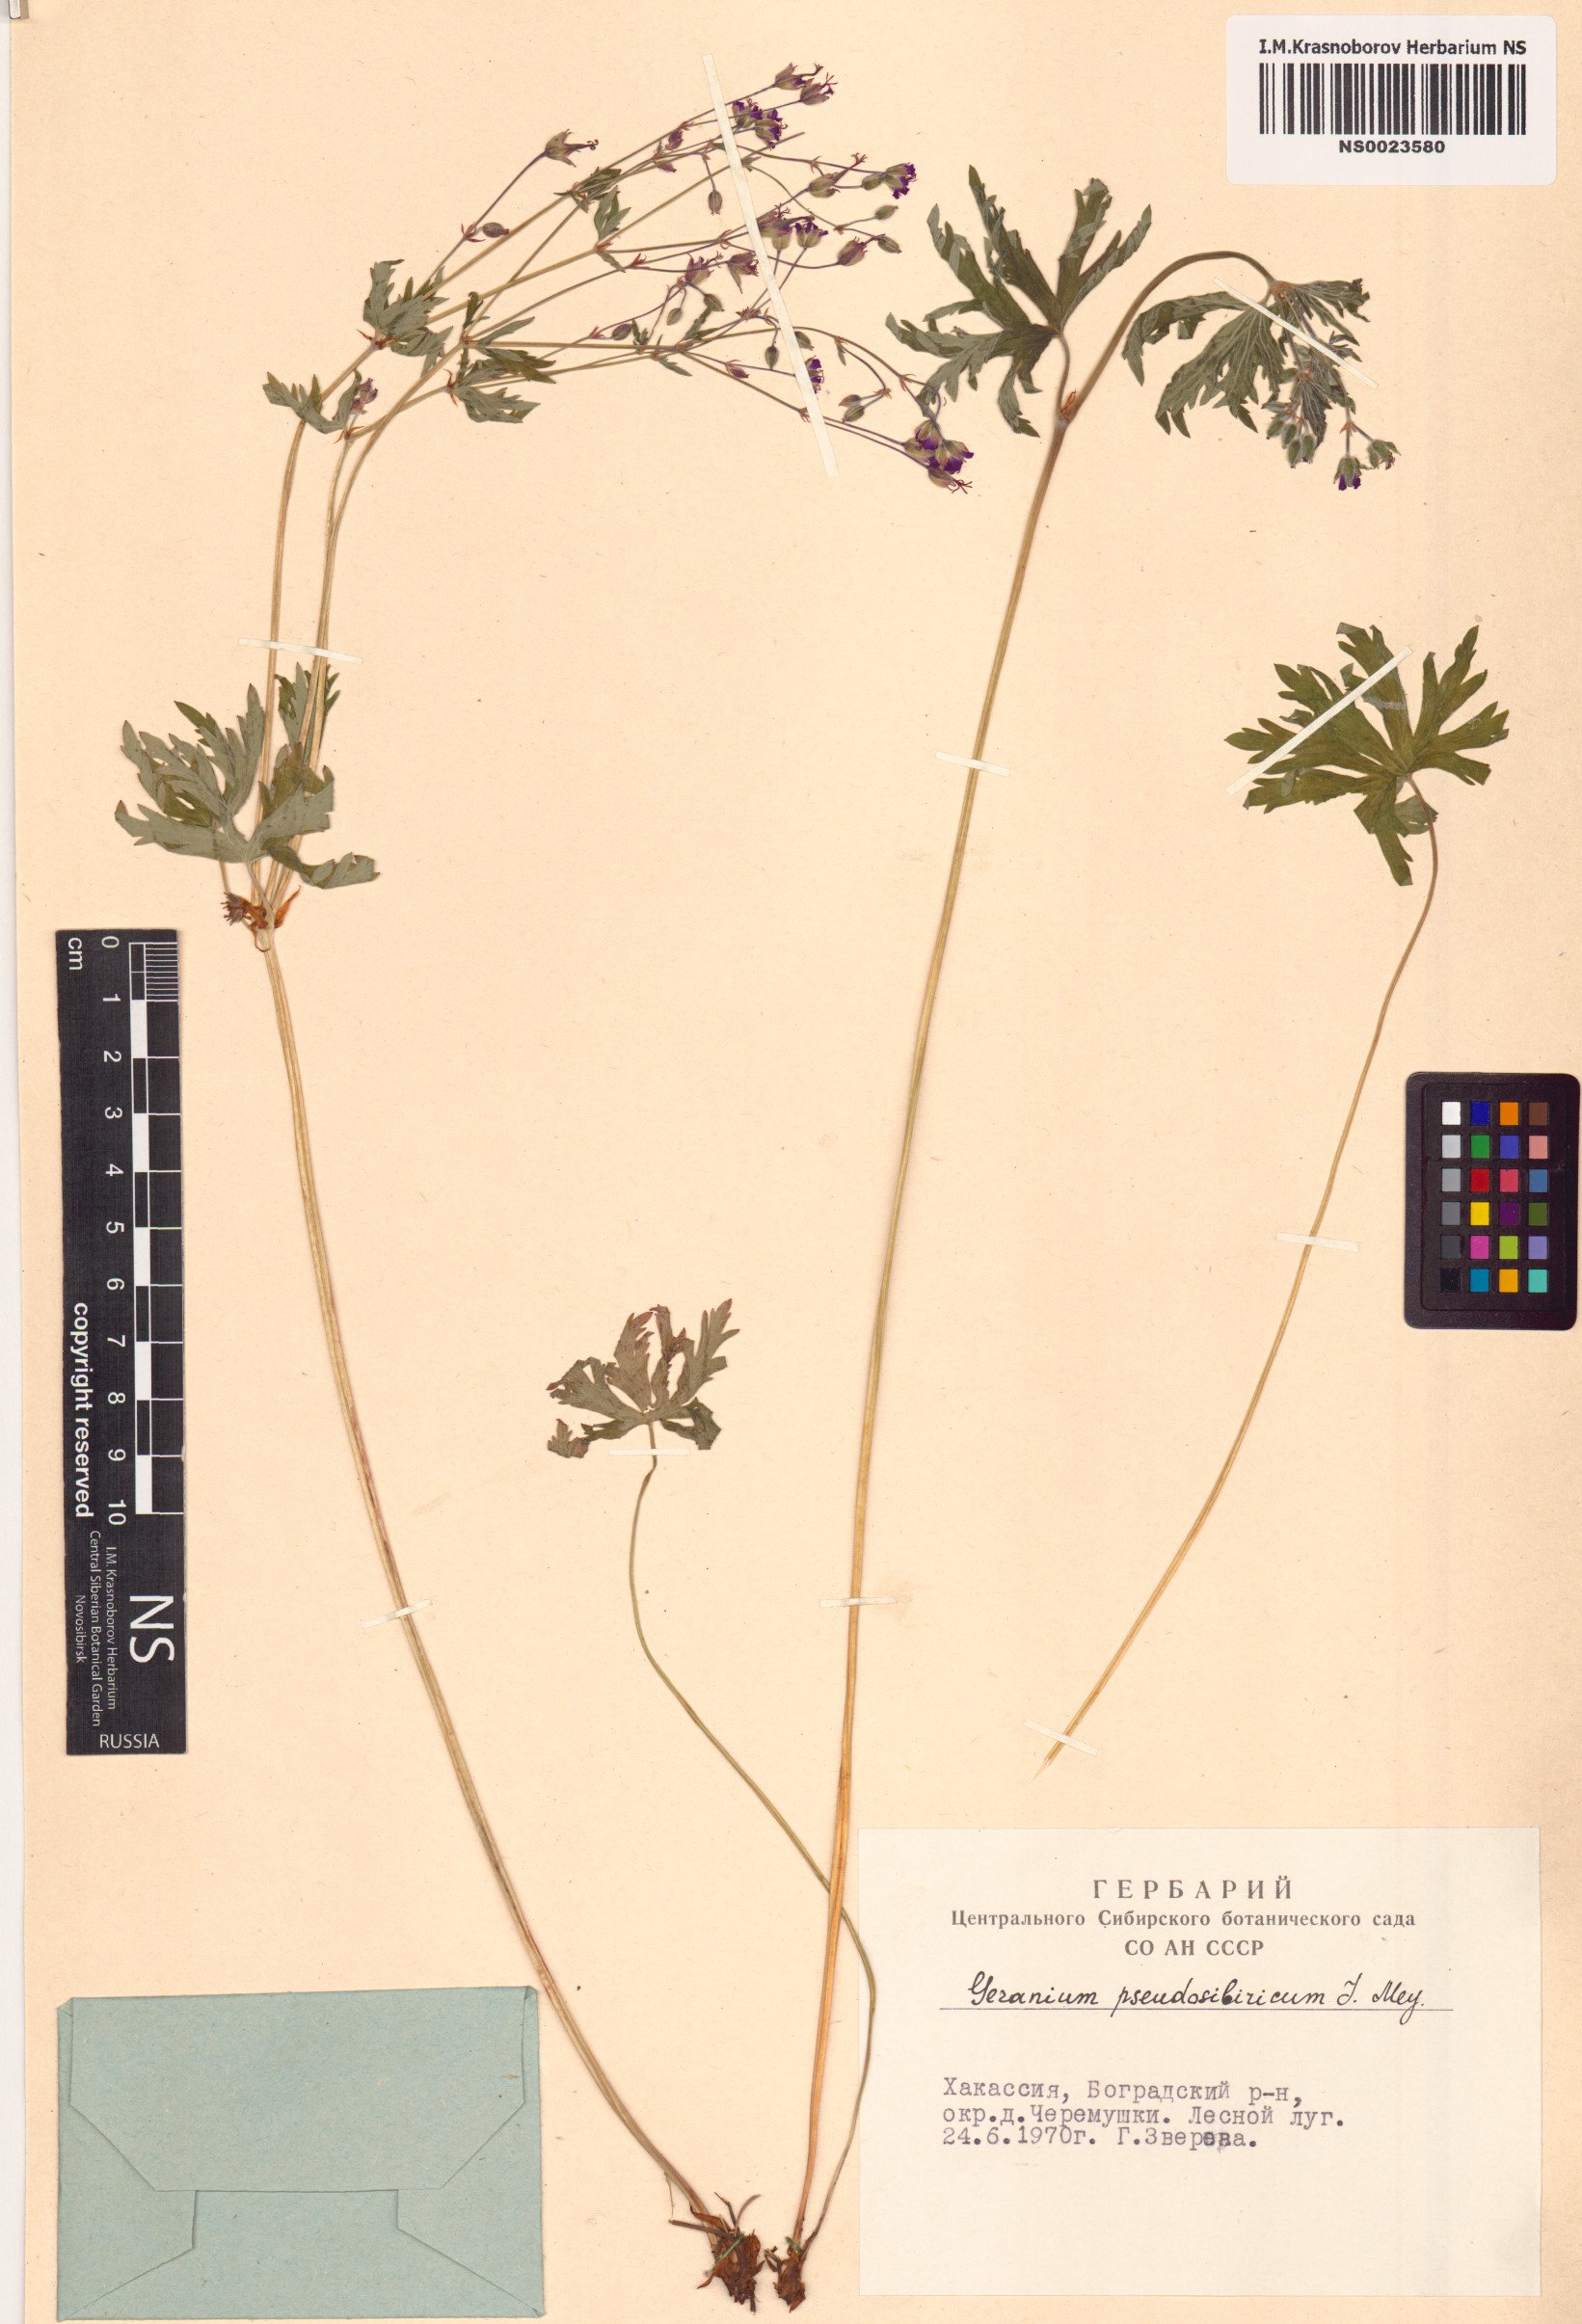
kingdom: Plantae
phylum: Tracheophyta
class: Magnoliopsida
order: Geraniales
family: Geraniaceae
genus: Geranium
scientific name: Geranium pseudosibiricum
